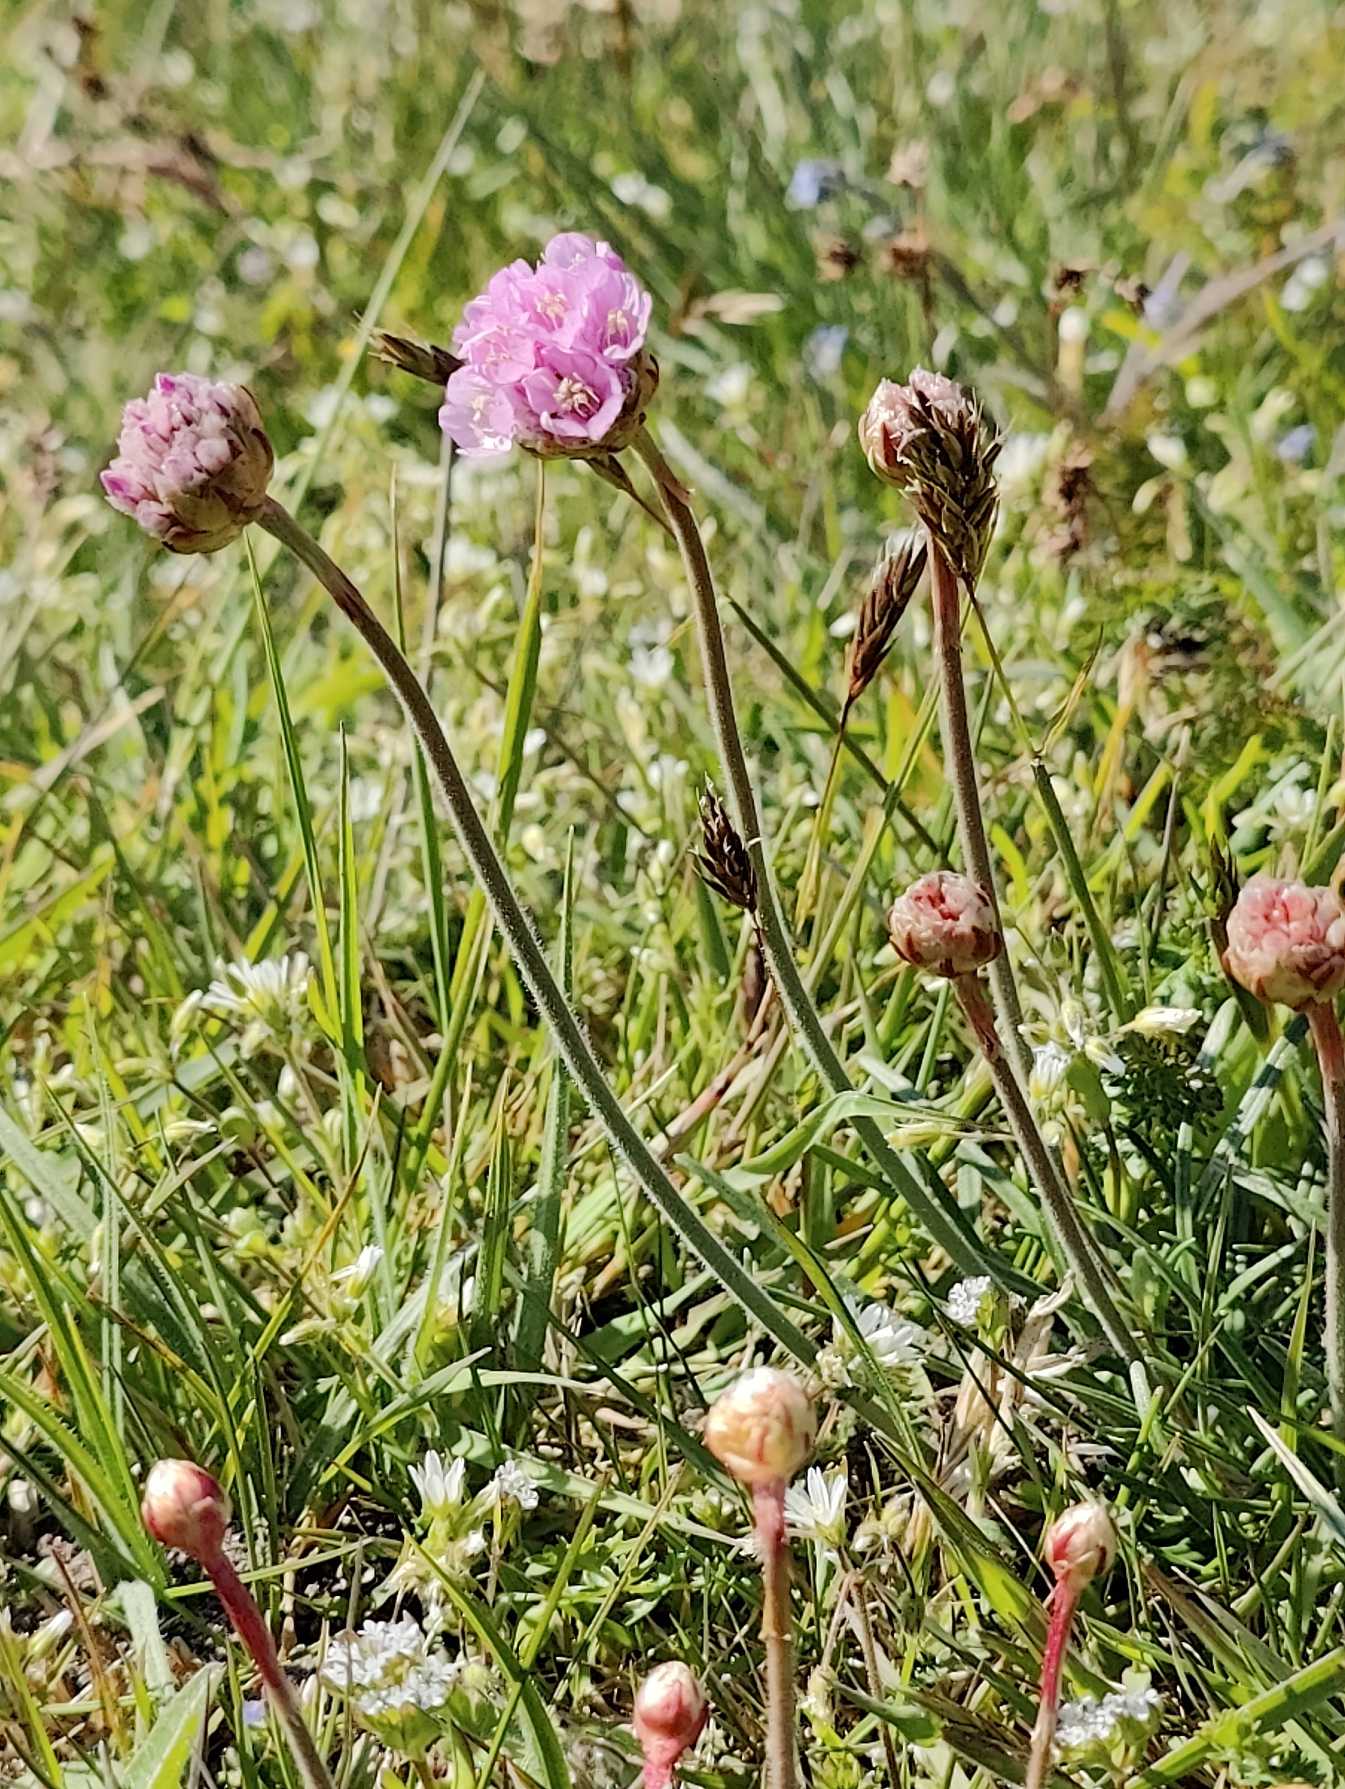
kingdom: Plantae
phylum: Tracheophyta
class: Magnoliopsida
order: Caryophyllales
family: Plumbaginaceae
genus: Armeria
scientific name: Armeria maritima
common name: Engelskgræs
